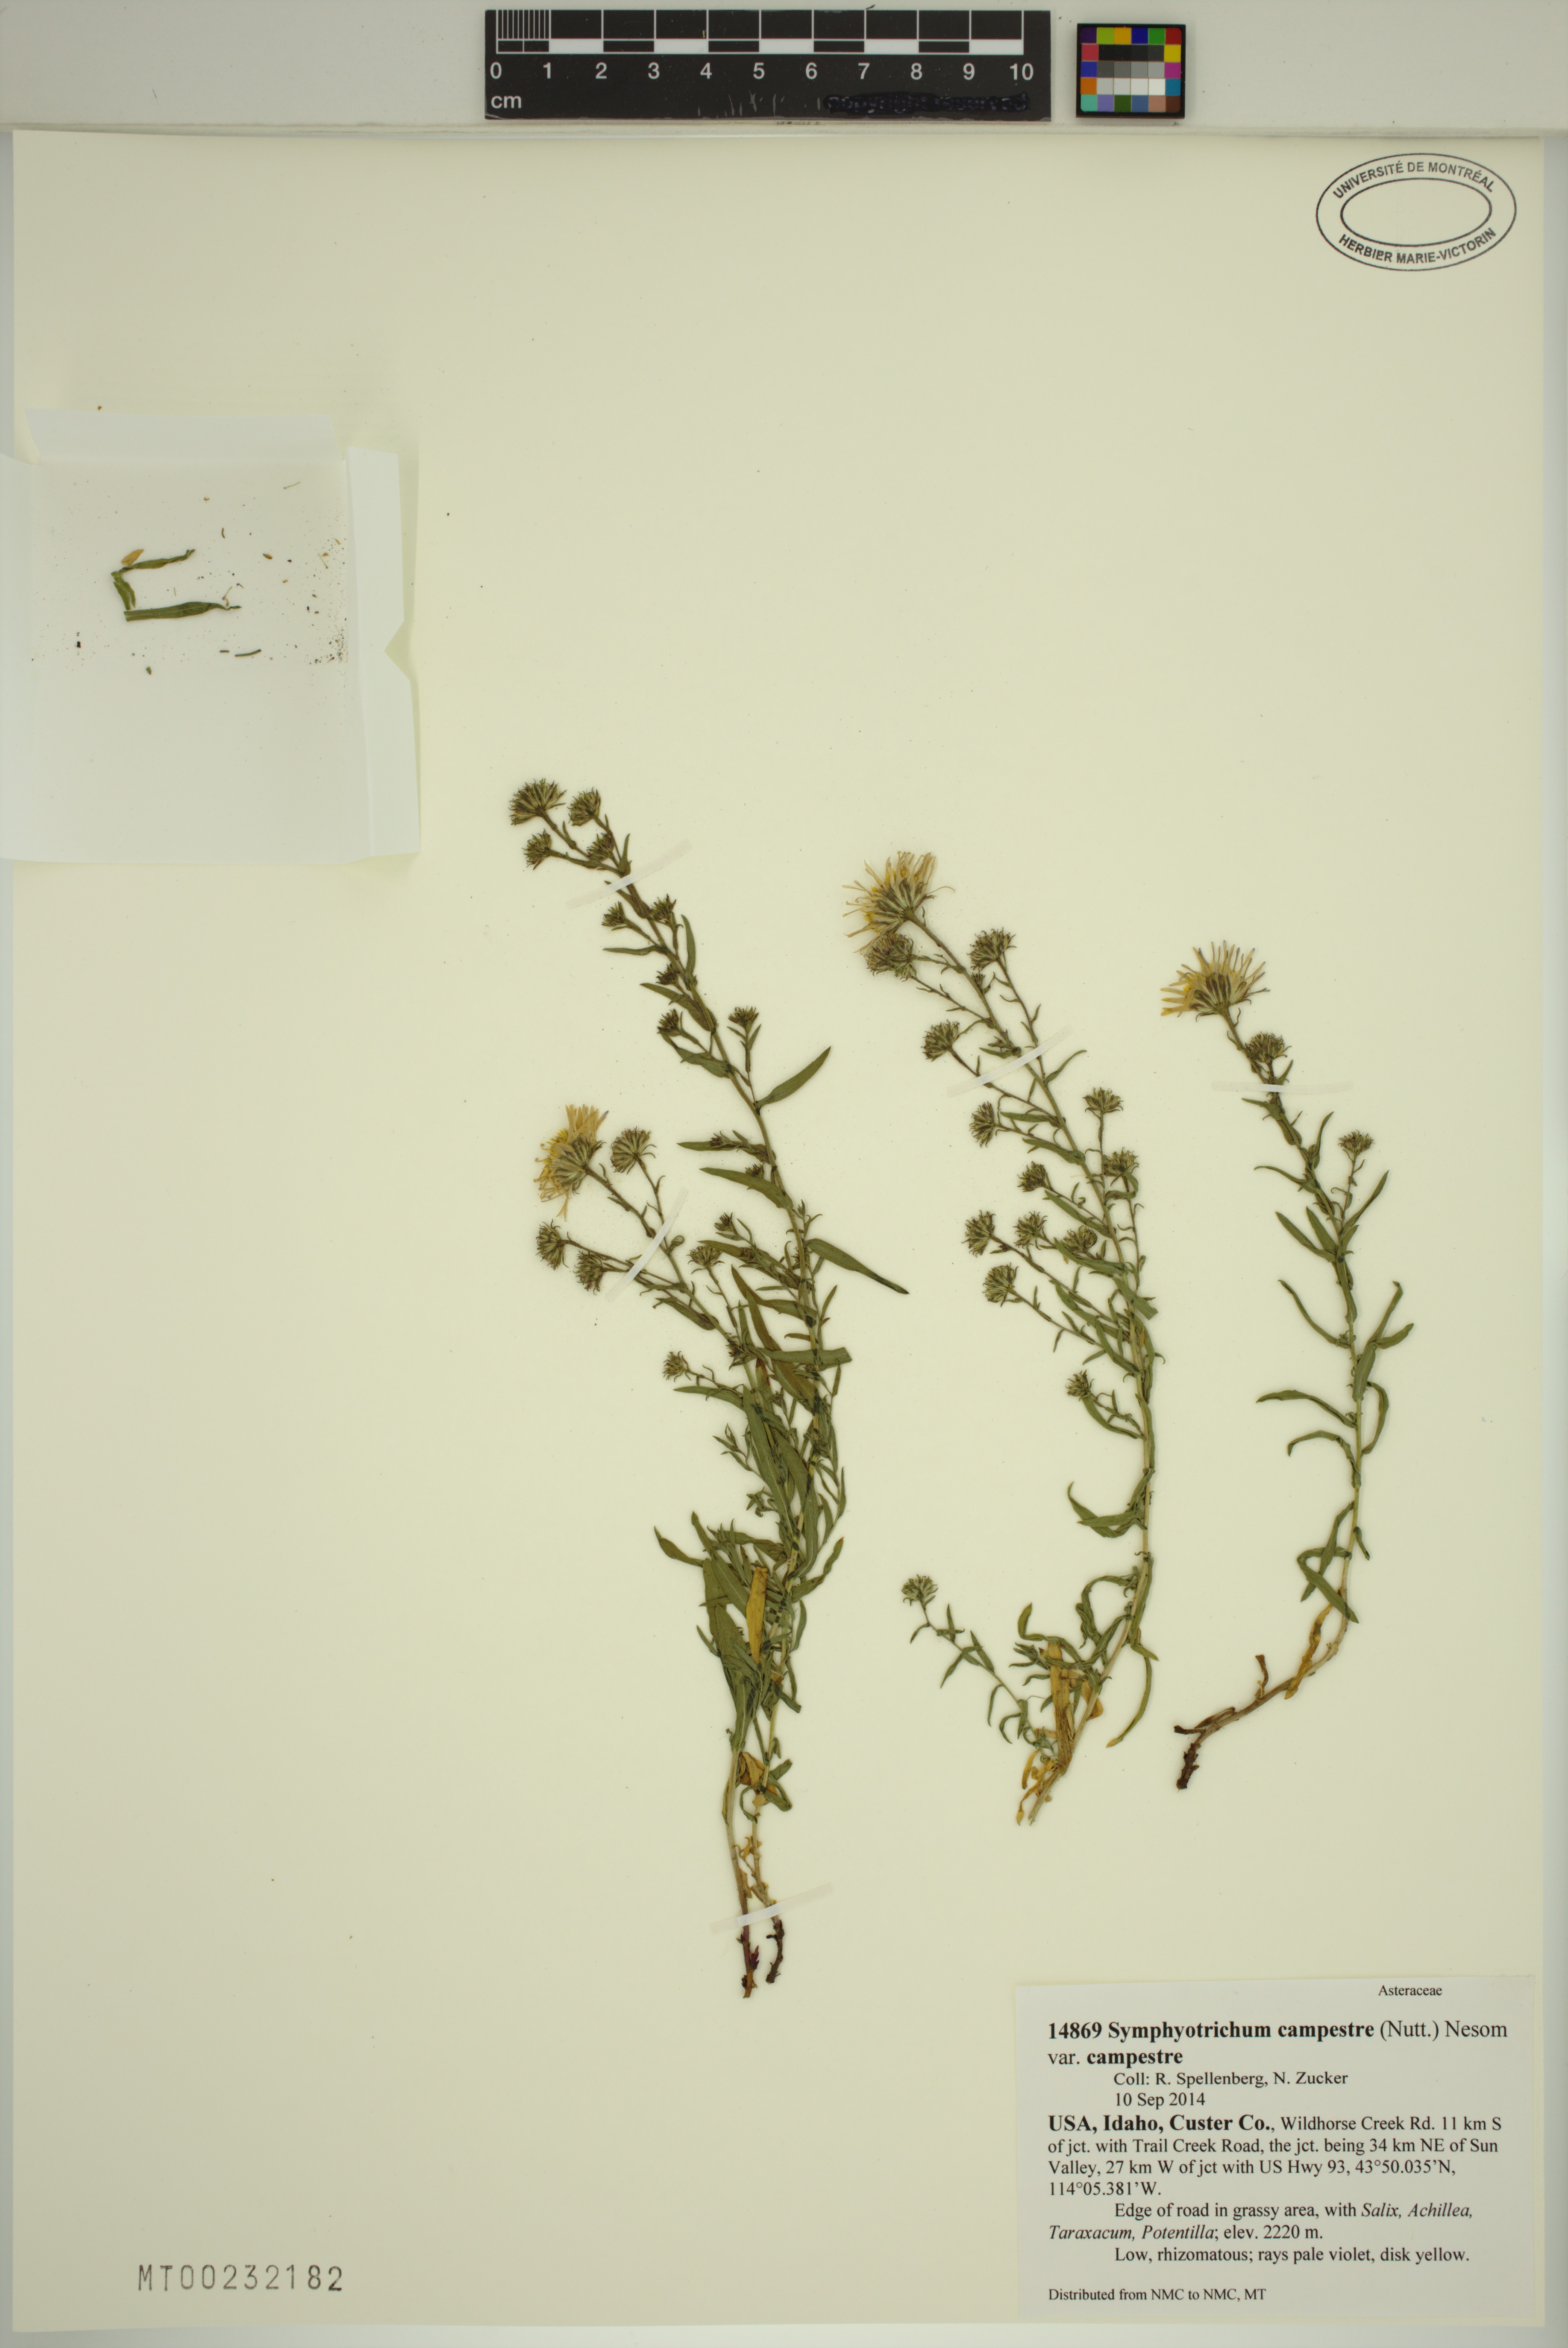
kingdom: Plantae
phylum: Tracheophyta
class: Magnoliopsida
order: Asterales
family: Asteraceae
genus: Symphyotrichum
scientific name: Symphyotrichum campestre
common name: Meadow aster
